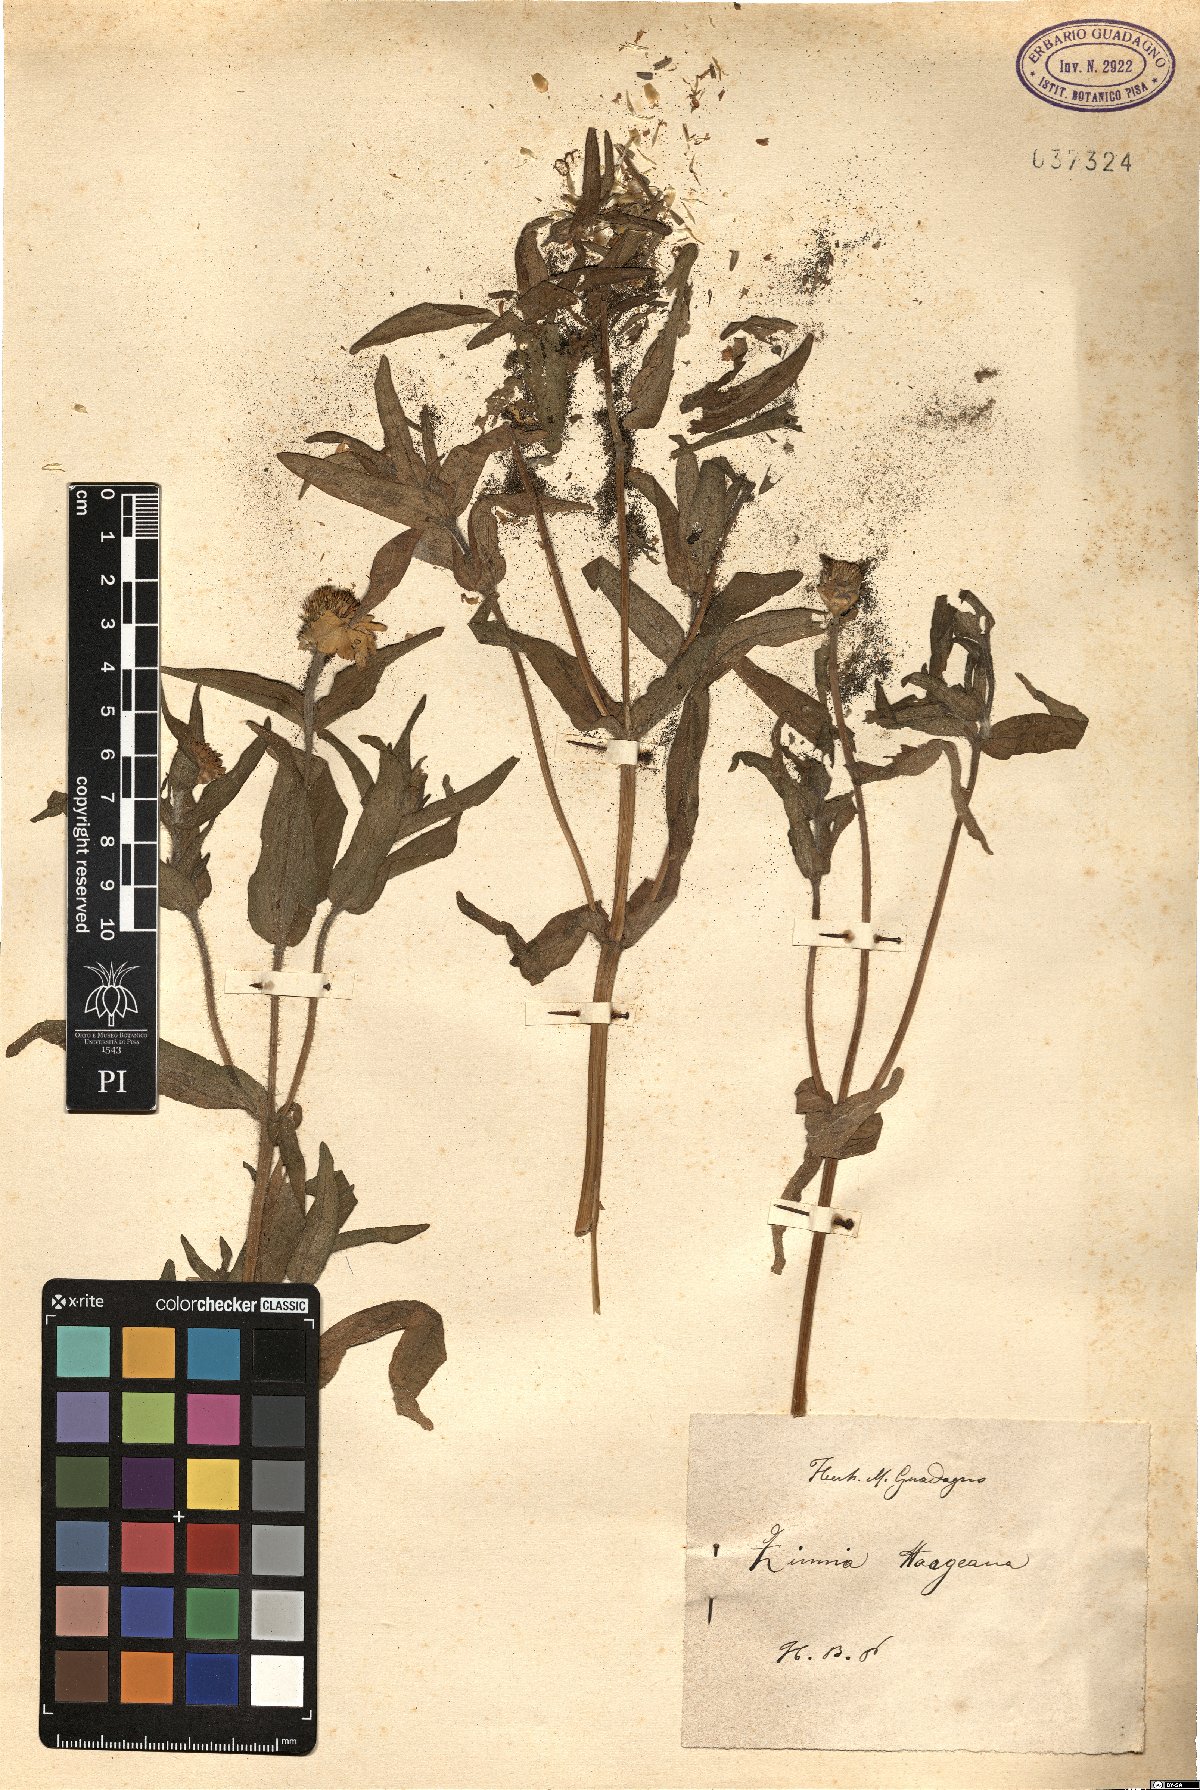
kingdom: Plantae
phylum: Tracheophyta
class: Magnoliopsida
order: Asterales
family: Asteraceae
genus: Zinnia
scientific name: Zinnia haageana
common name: Mexican zinnia
